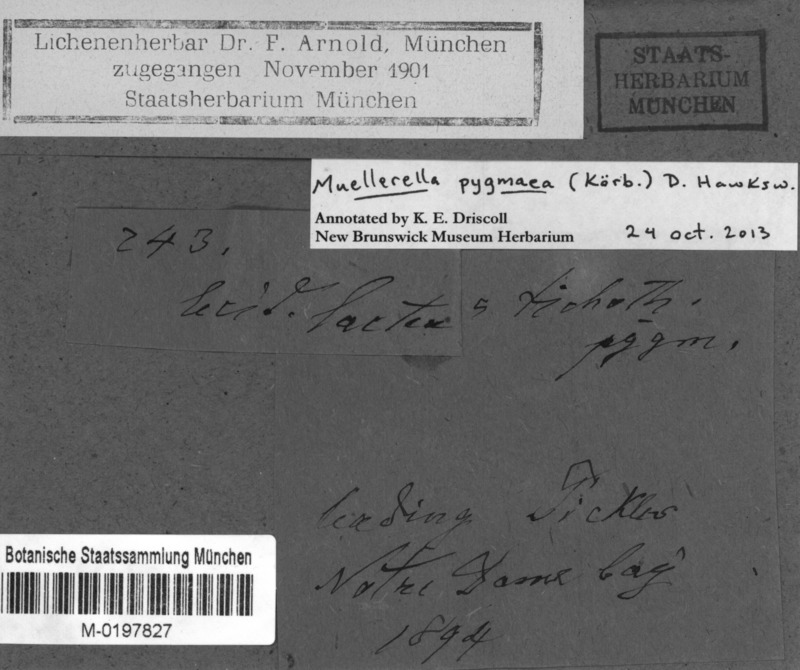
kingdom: Fungi
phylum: Ascomycota
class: Lecanoromycetes
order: Lecideales
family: Lecideaceae
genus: Lecidea
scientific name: Lecidea lapicida
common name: Gray-orange disk lichen
